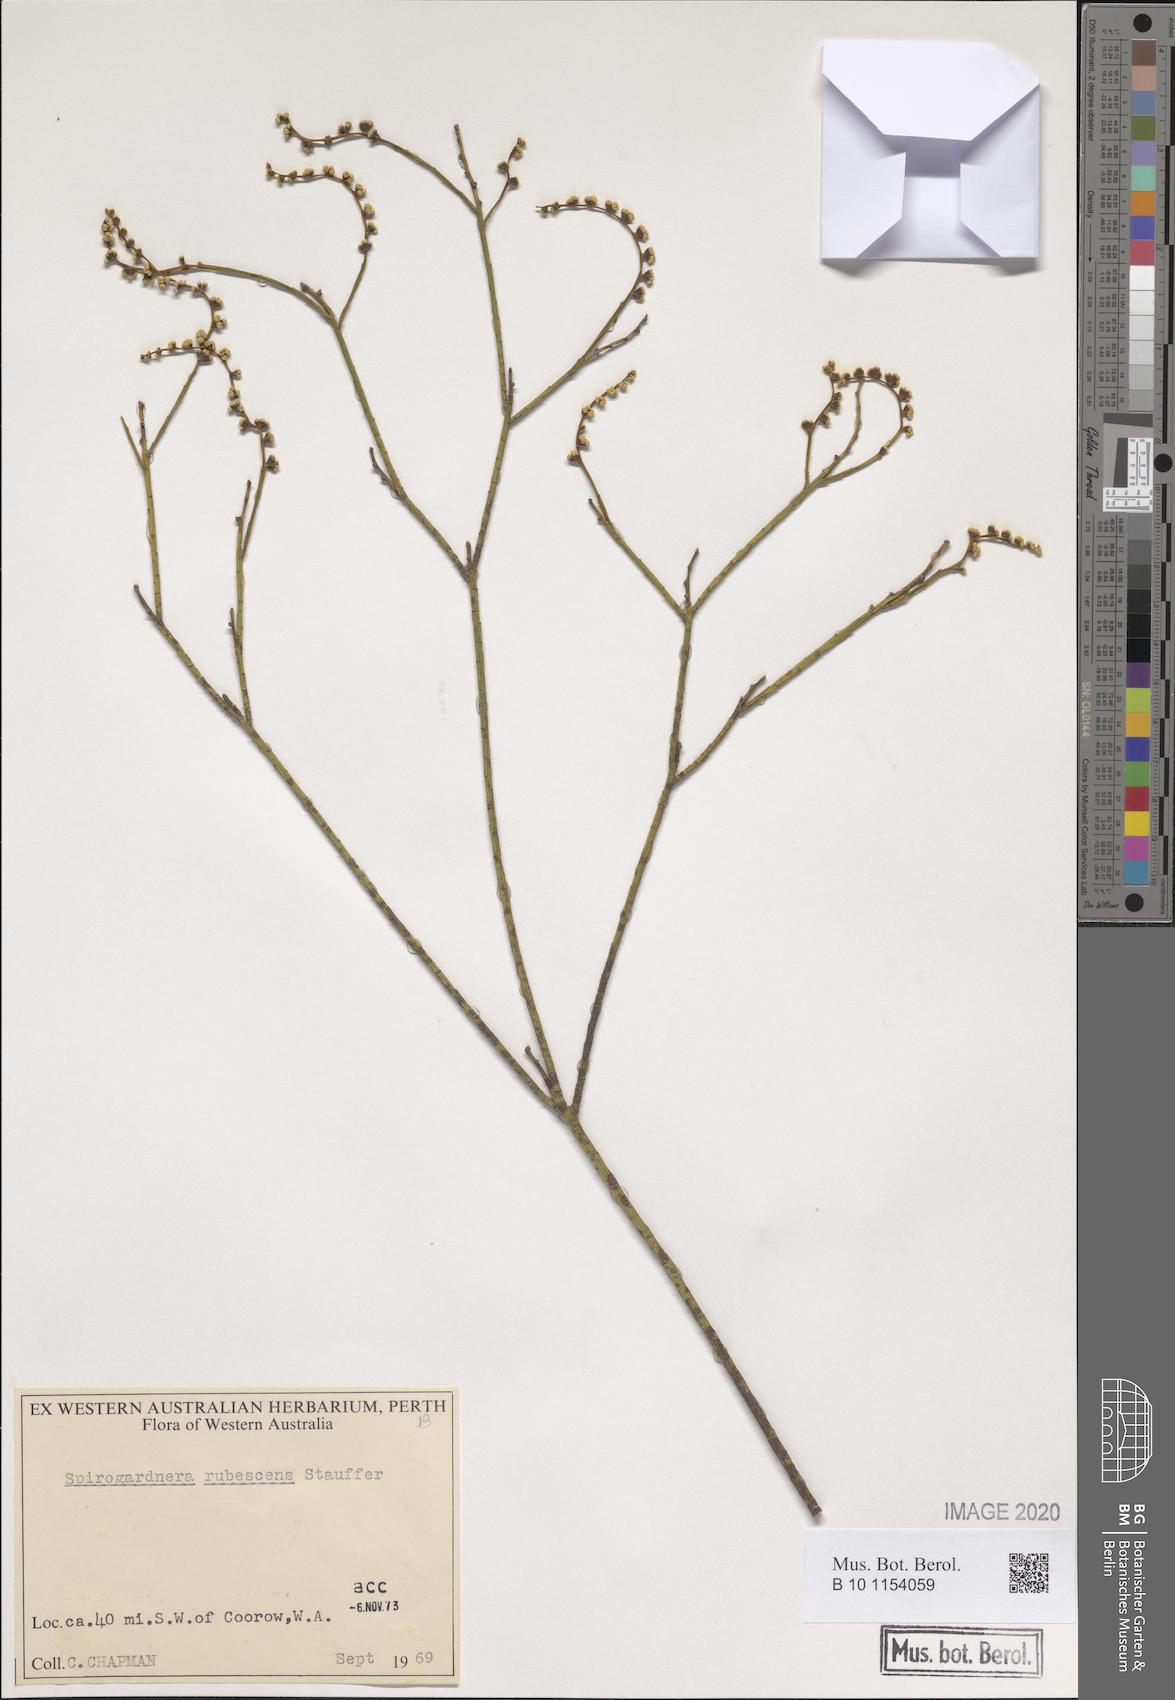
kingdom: Plantae
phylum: Tracheophyta
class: Magnoliopsida
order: Santalales
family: Amphorogynaceae
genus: Spirogardnera
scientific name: Spirogardnera rubescens
